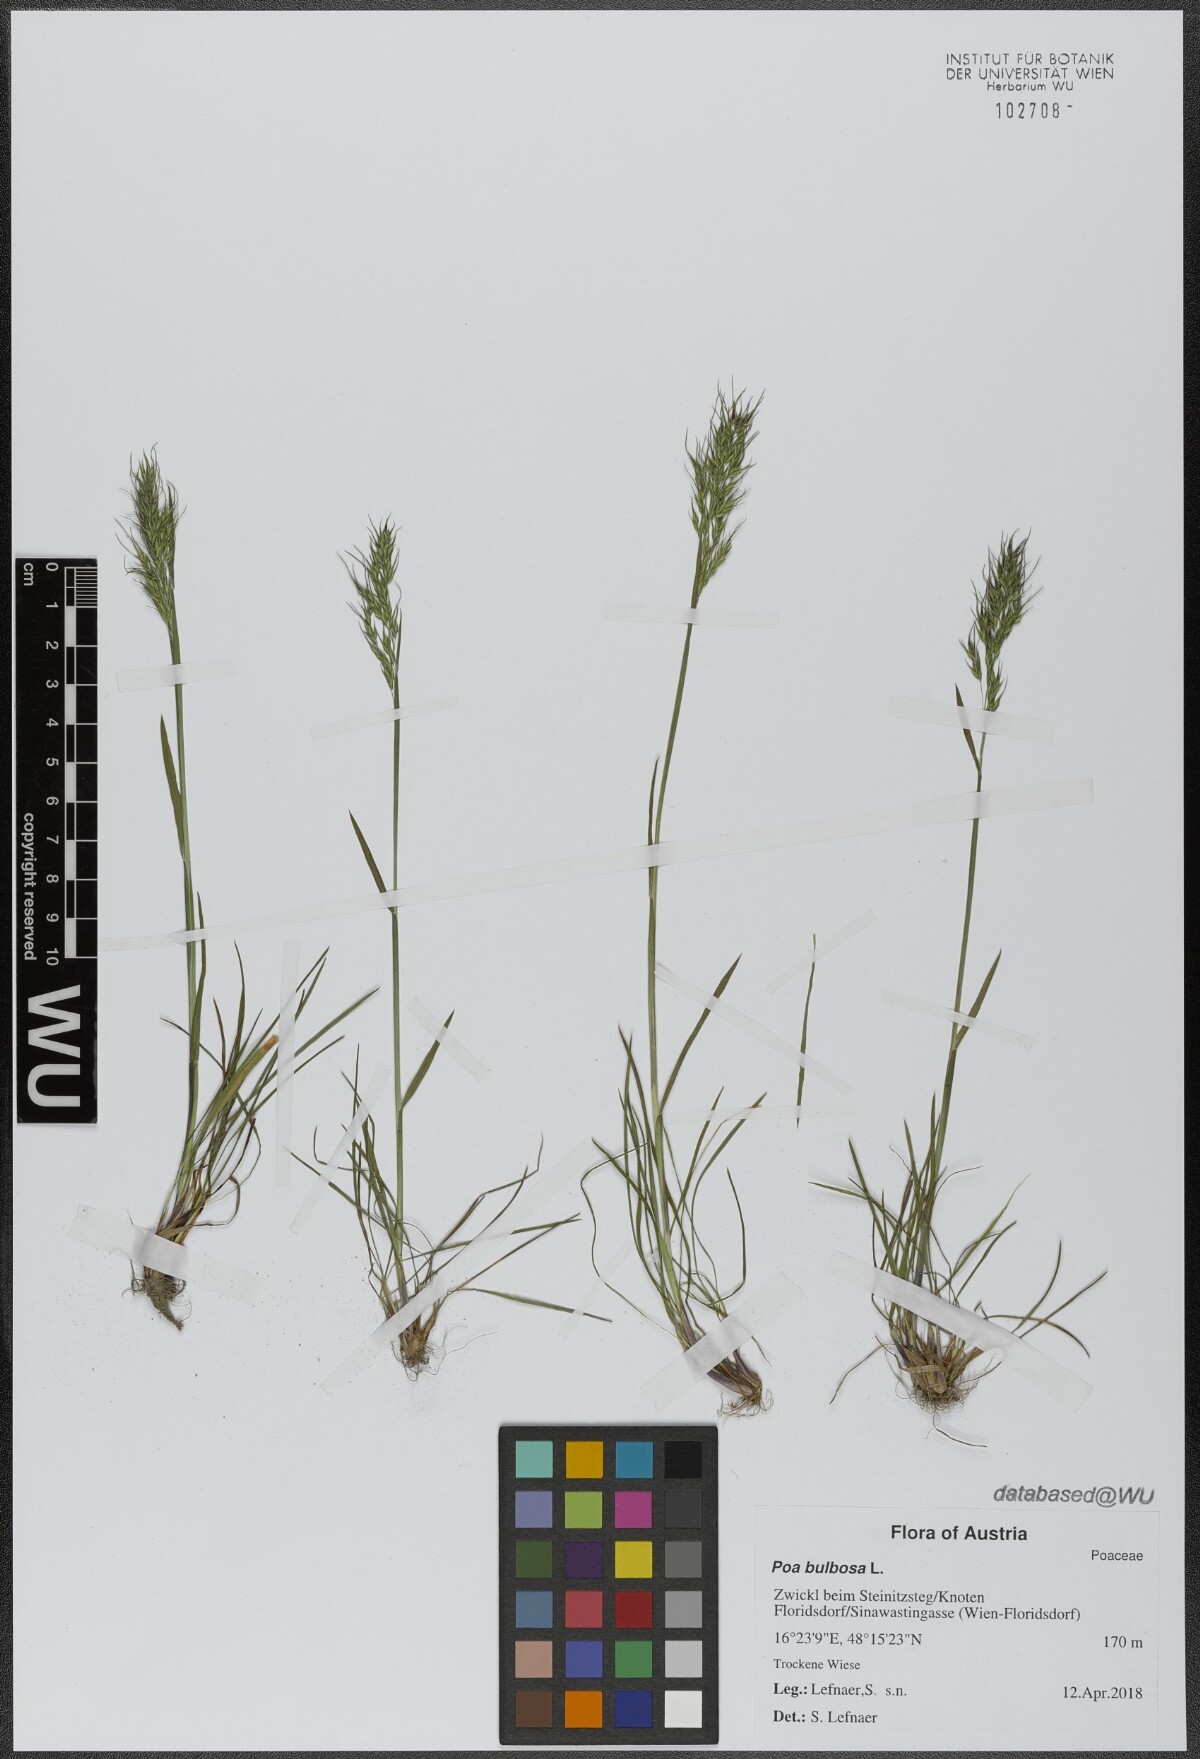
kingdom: Plantae
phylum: Tracheophyta
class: Liliopsida
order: Poales
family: Poaceae
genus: Poa
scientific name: Poa bulbosa
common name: Bulbous bluegrass
